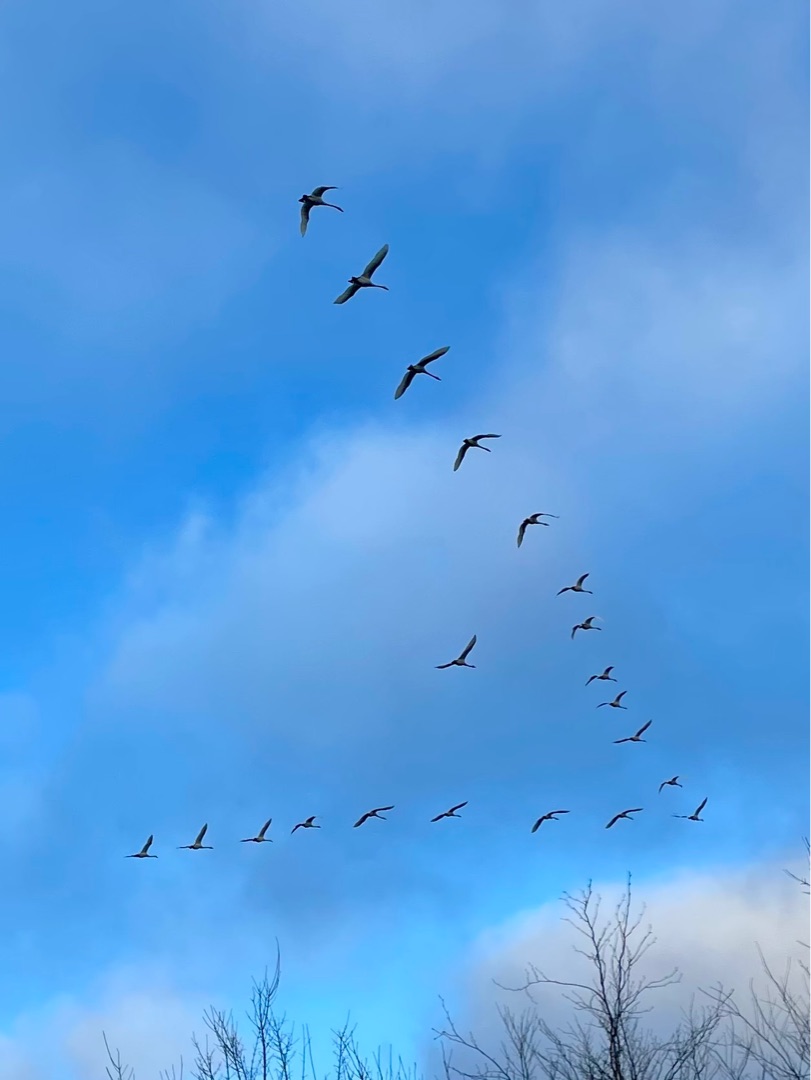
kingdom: Animalia
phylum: Chordata
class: Aves
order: Anseriformes
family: Anatidae
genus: Cygnus
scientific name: Cygnus cygnus
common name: Sangsvane
